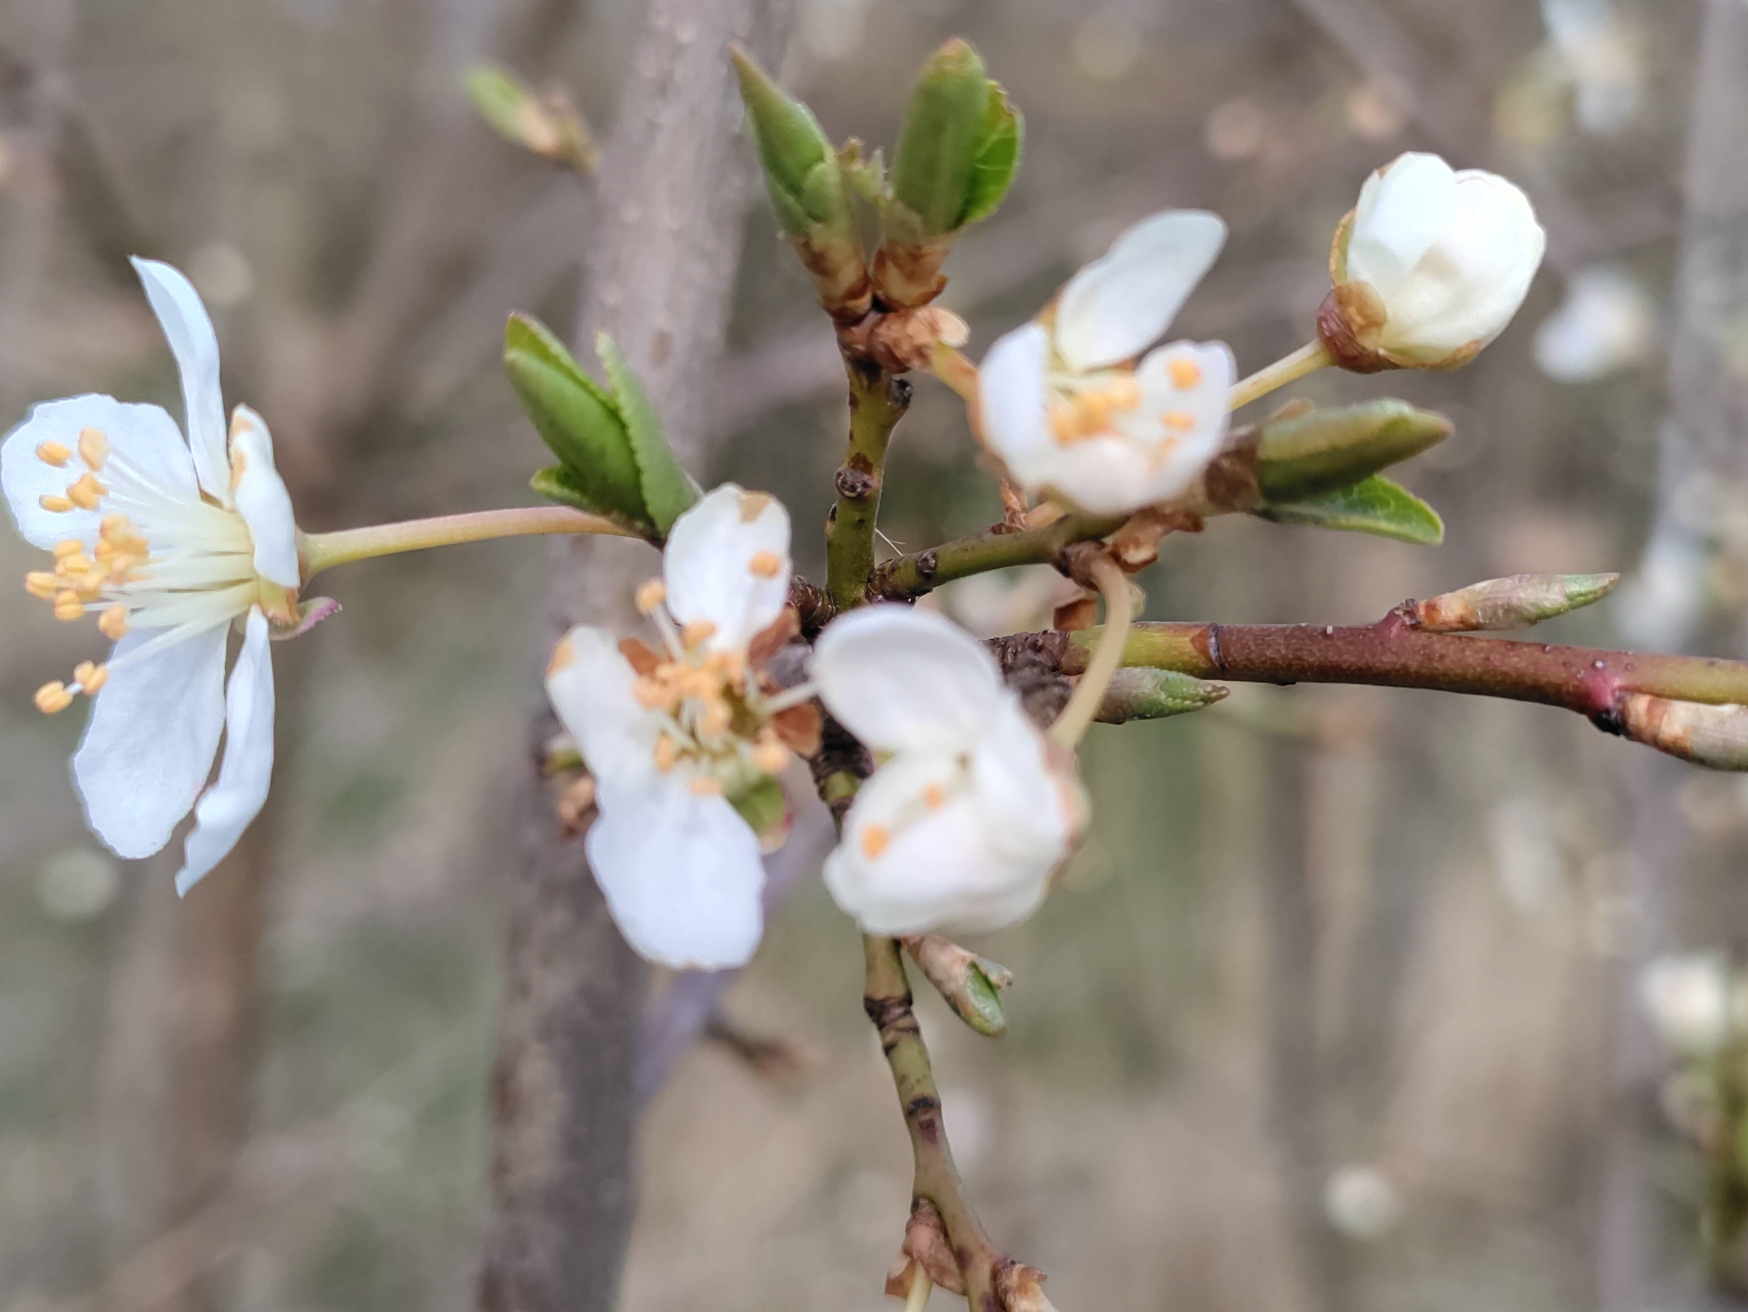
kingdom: Plantae
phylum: Tracheophyta
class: Magnoliopsida
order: Rosales
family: Rosaceae
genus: Prunus
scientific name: Prunus cerasifera
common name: Mirabel
